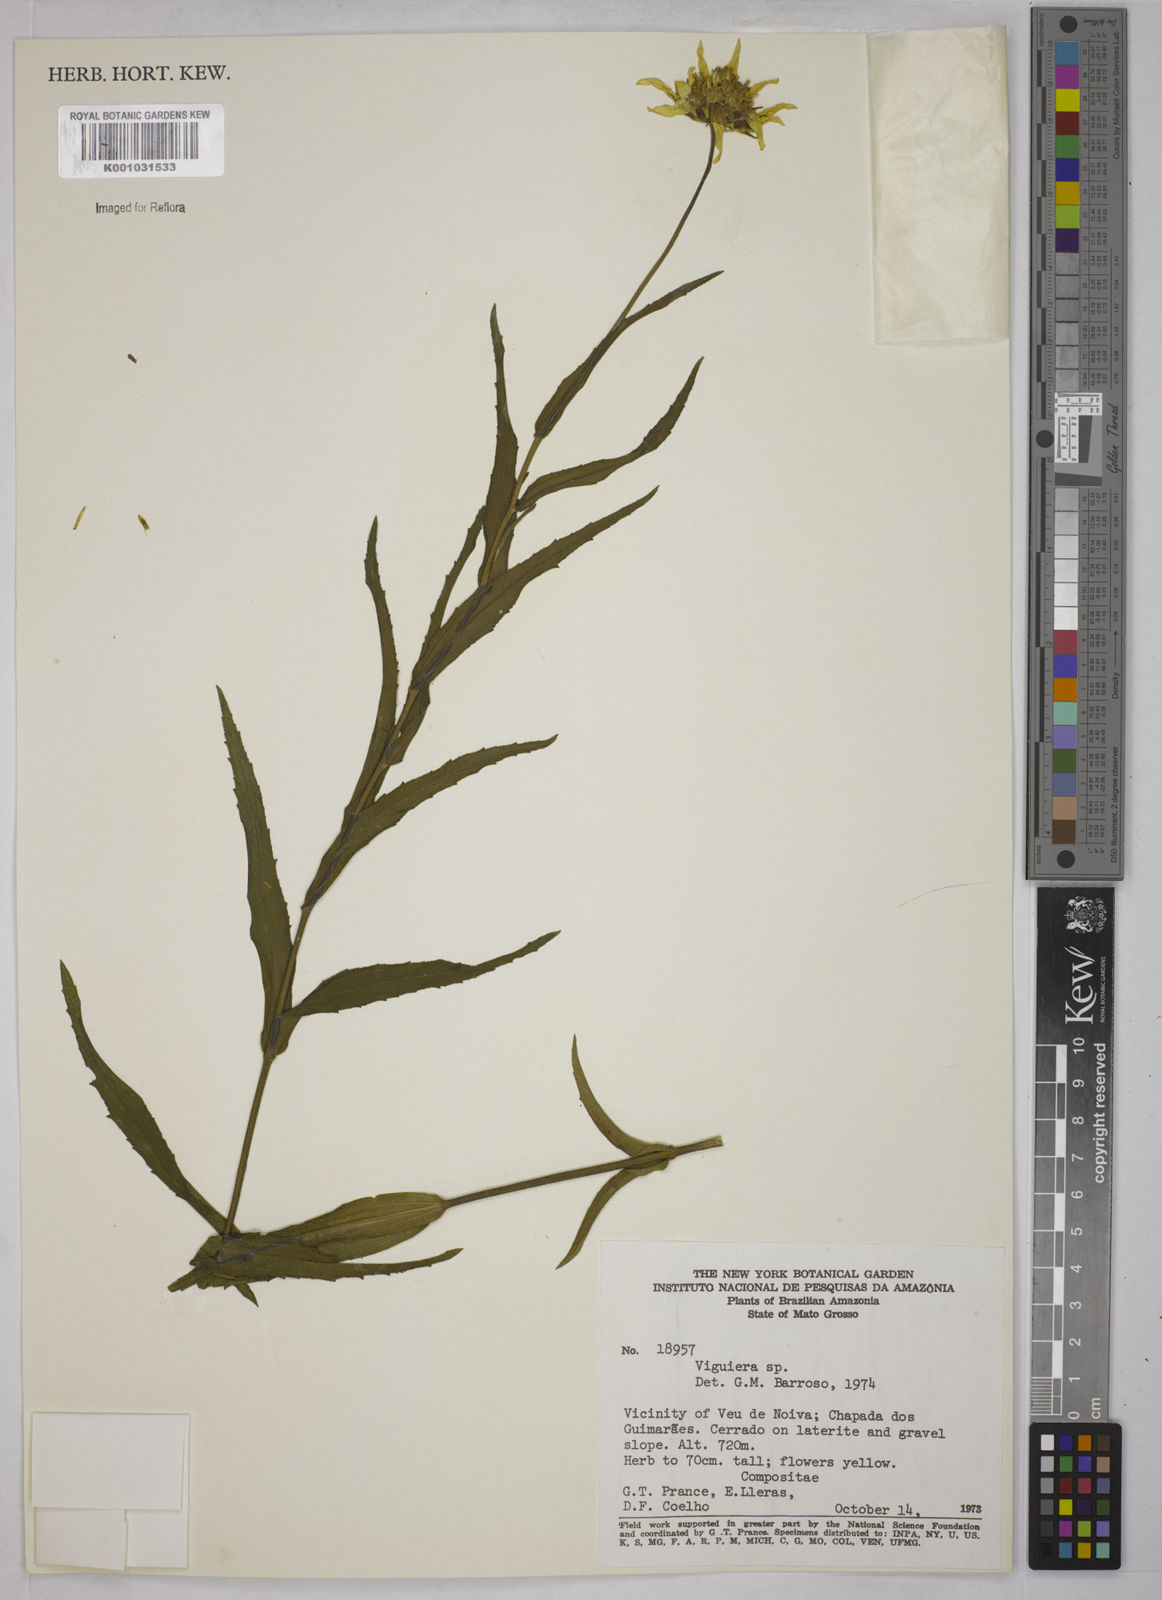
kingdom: Plantae
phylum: Tracheophyta
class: Magnoliopsida
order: Asterales
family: Asteraceae
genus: Viguiera
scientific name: Viguiera
